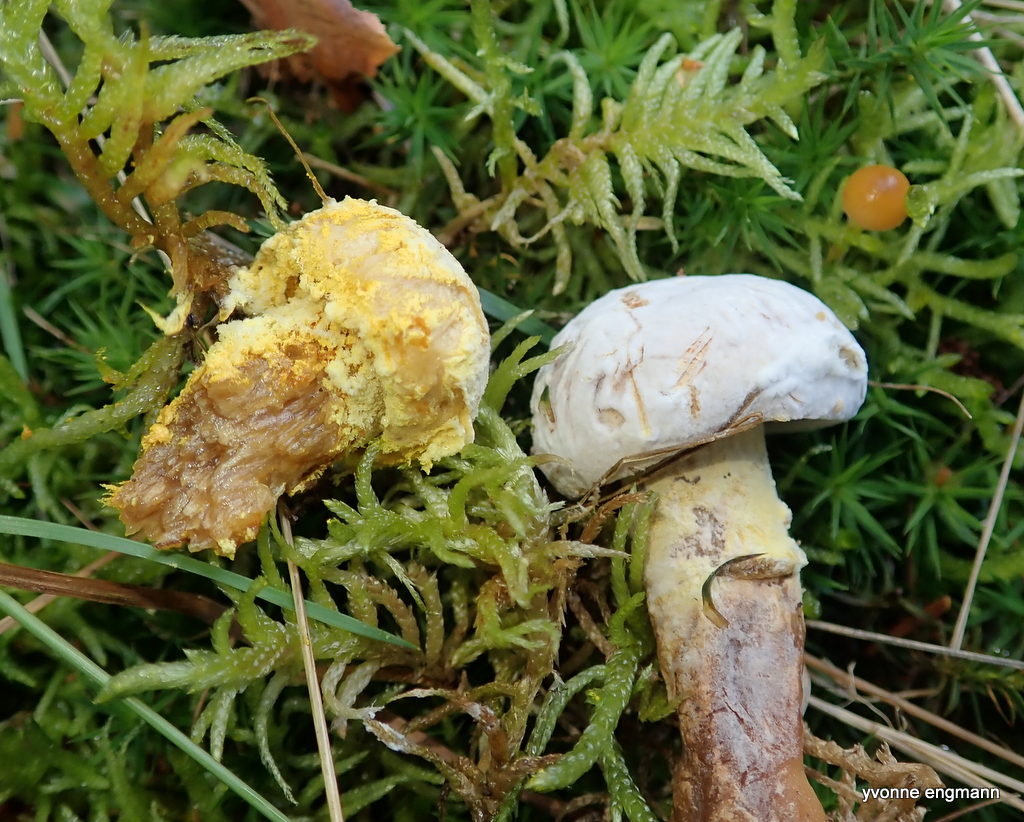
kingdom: Fungi
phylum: Ascomycota
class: Sordariomycetes
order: Hypocreales
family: Hypocreaceae
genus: Hypomyces
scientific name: Hypomyces
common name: snylteskorpe
